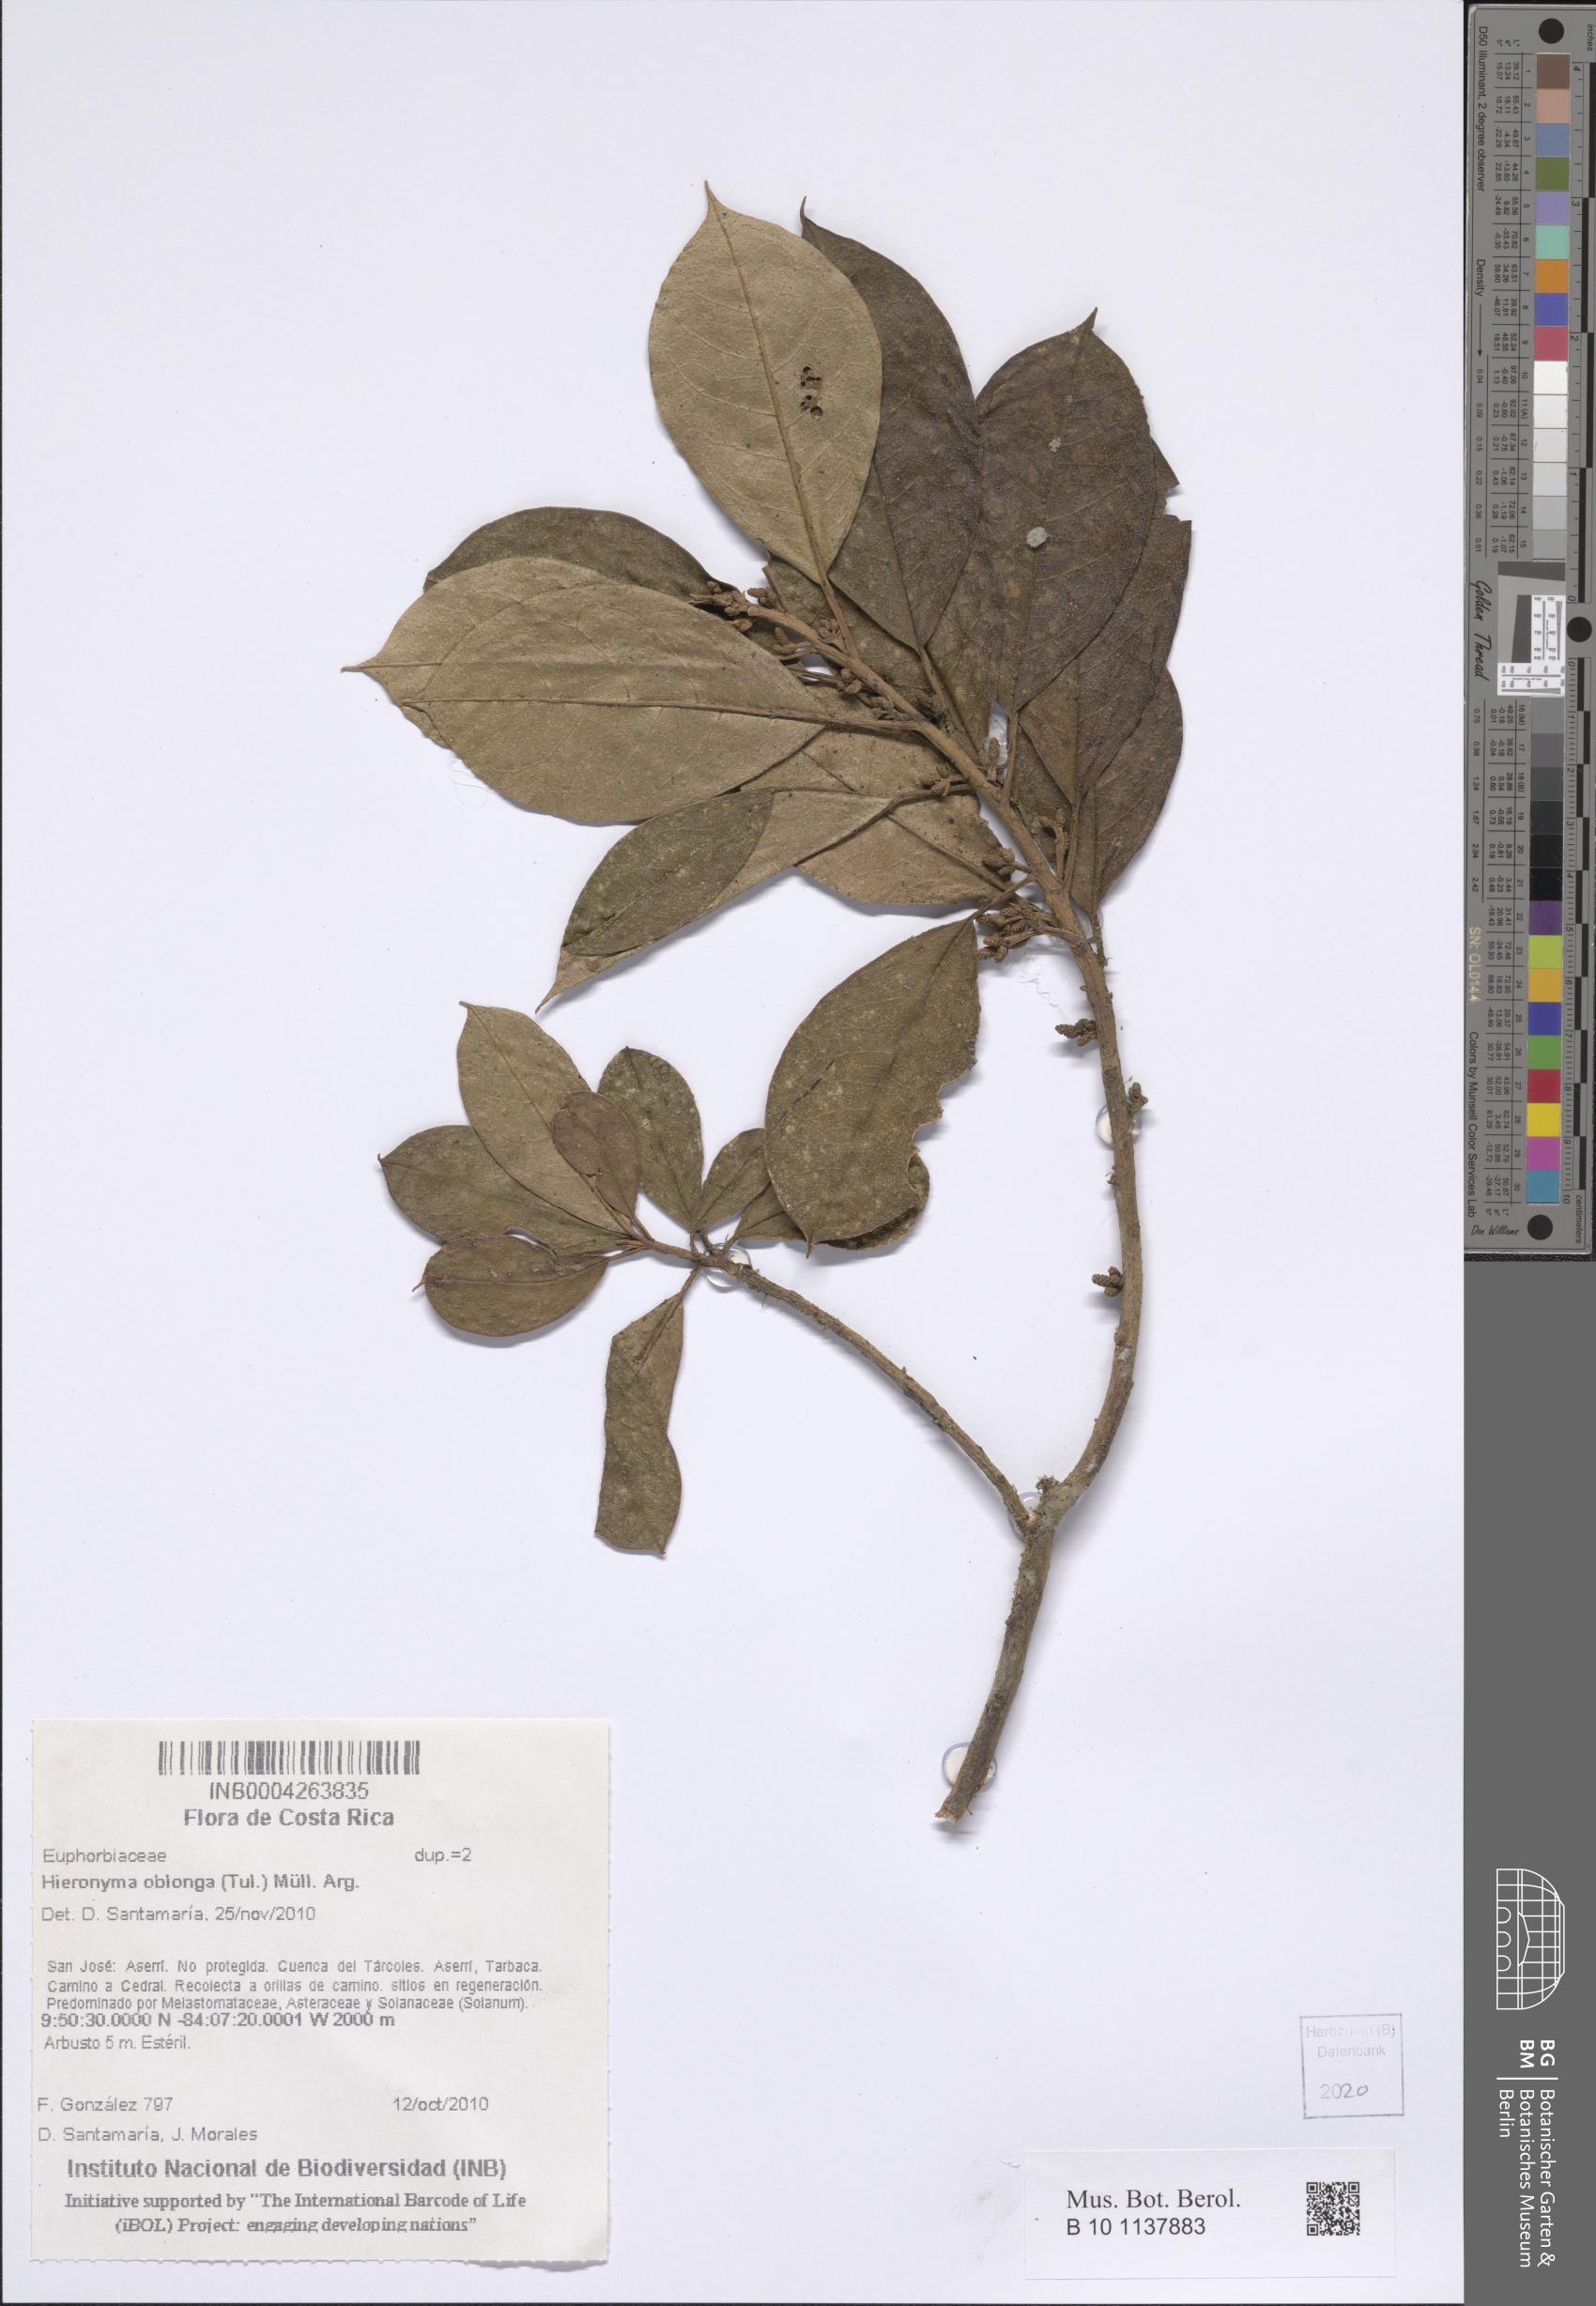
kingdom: Plantae
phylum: Tracheophyta
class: Magnoliopsida
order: Malpighiales
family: Phyllanthaceae
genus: Hieronyma
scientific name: Hieronyma oblonga
